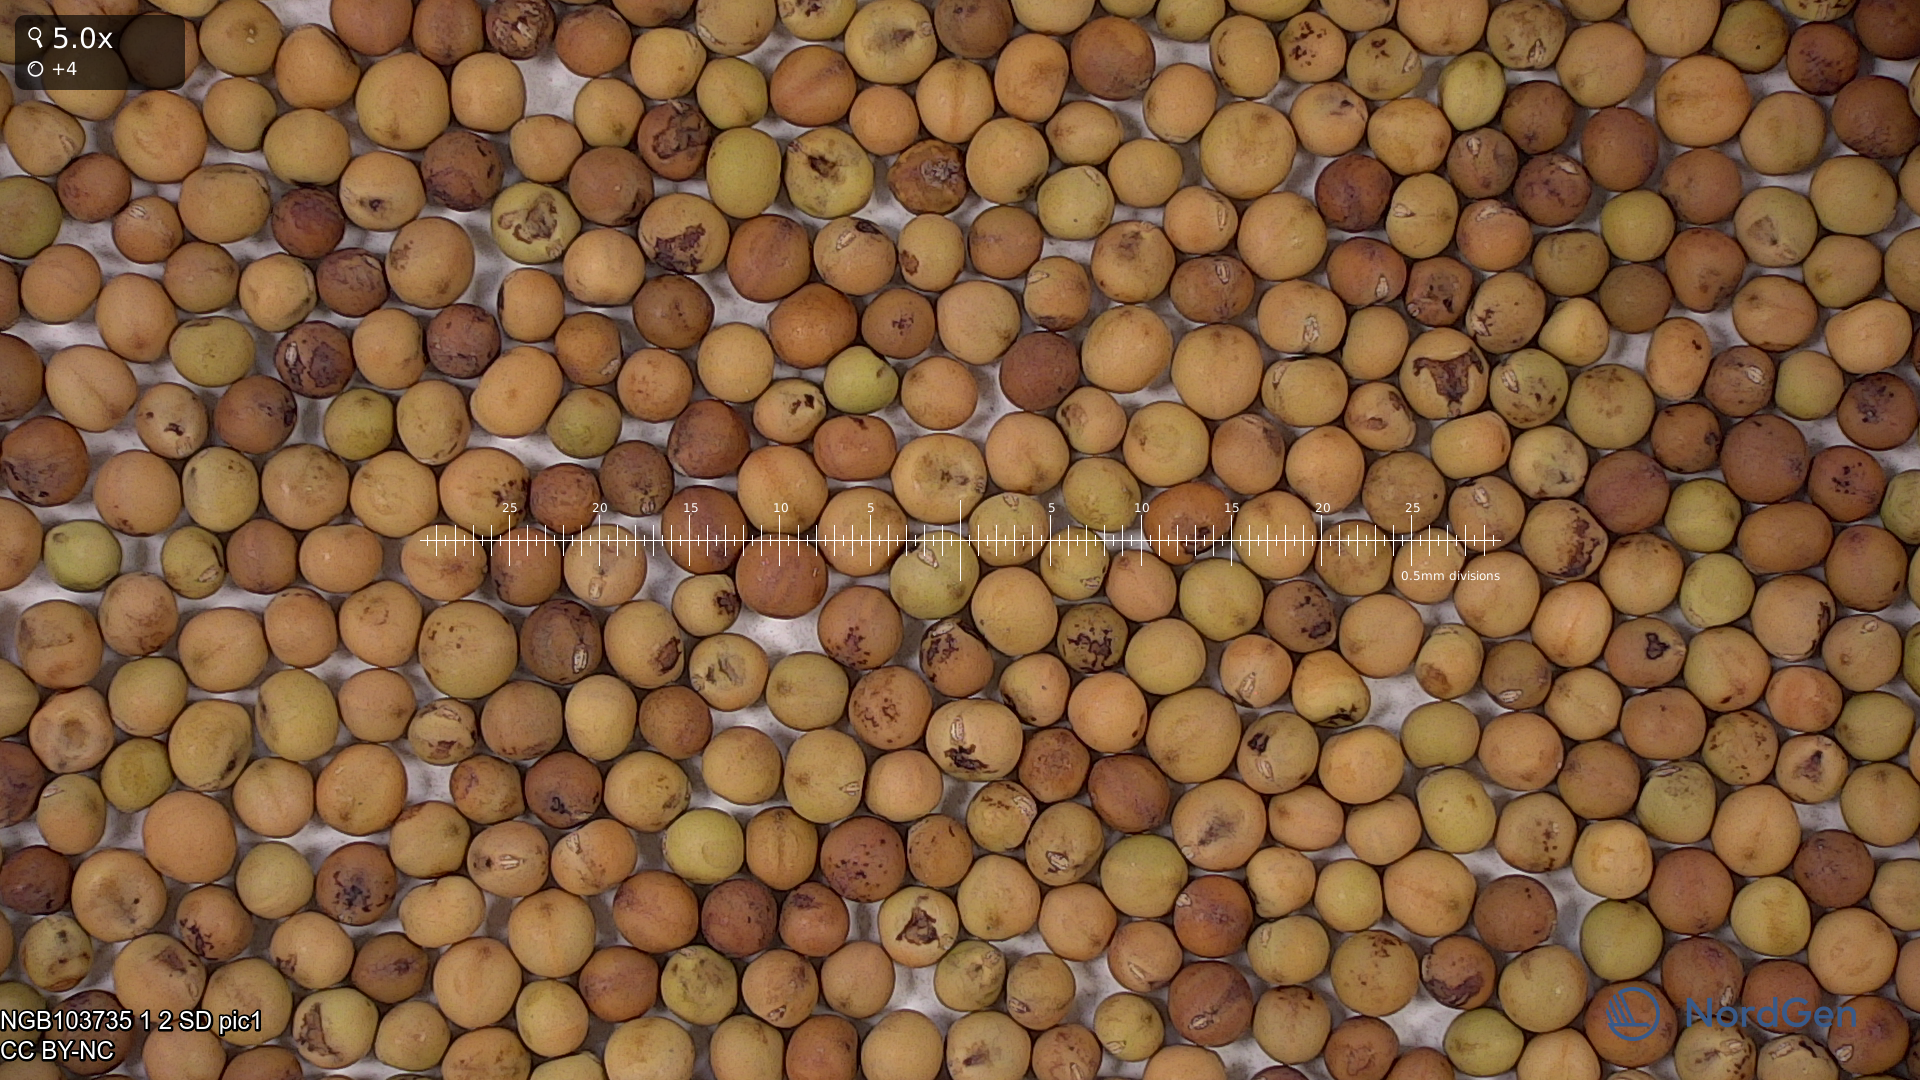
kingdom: Plantae
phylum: Tracheophyta
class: Magnoliopsida
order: Fabales
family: Fabaceae
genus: Lathyrus
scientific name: Lathyrus oleraceus
